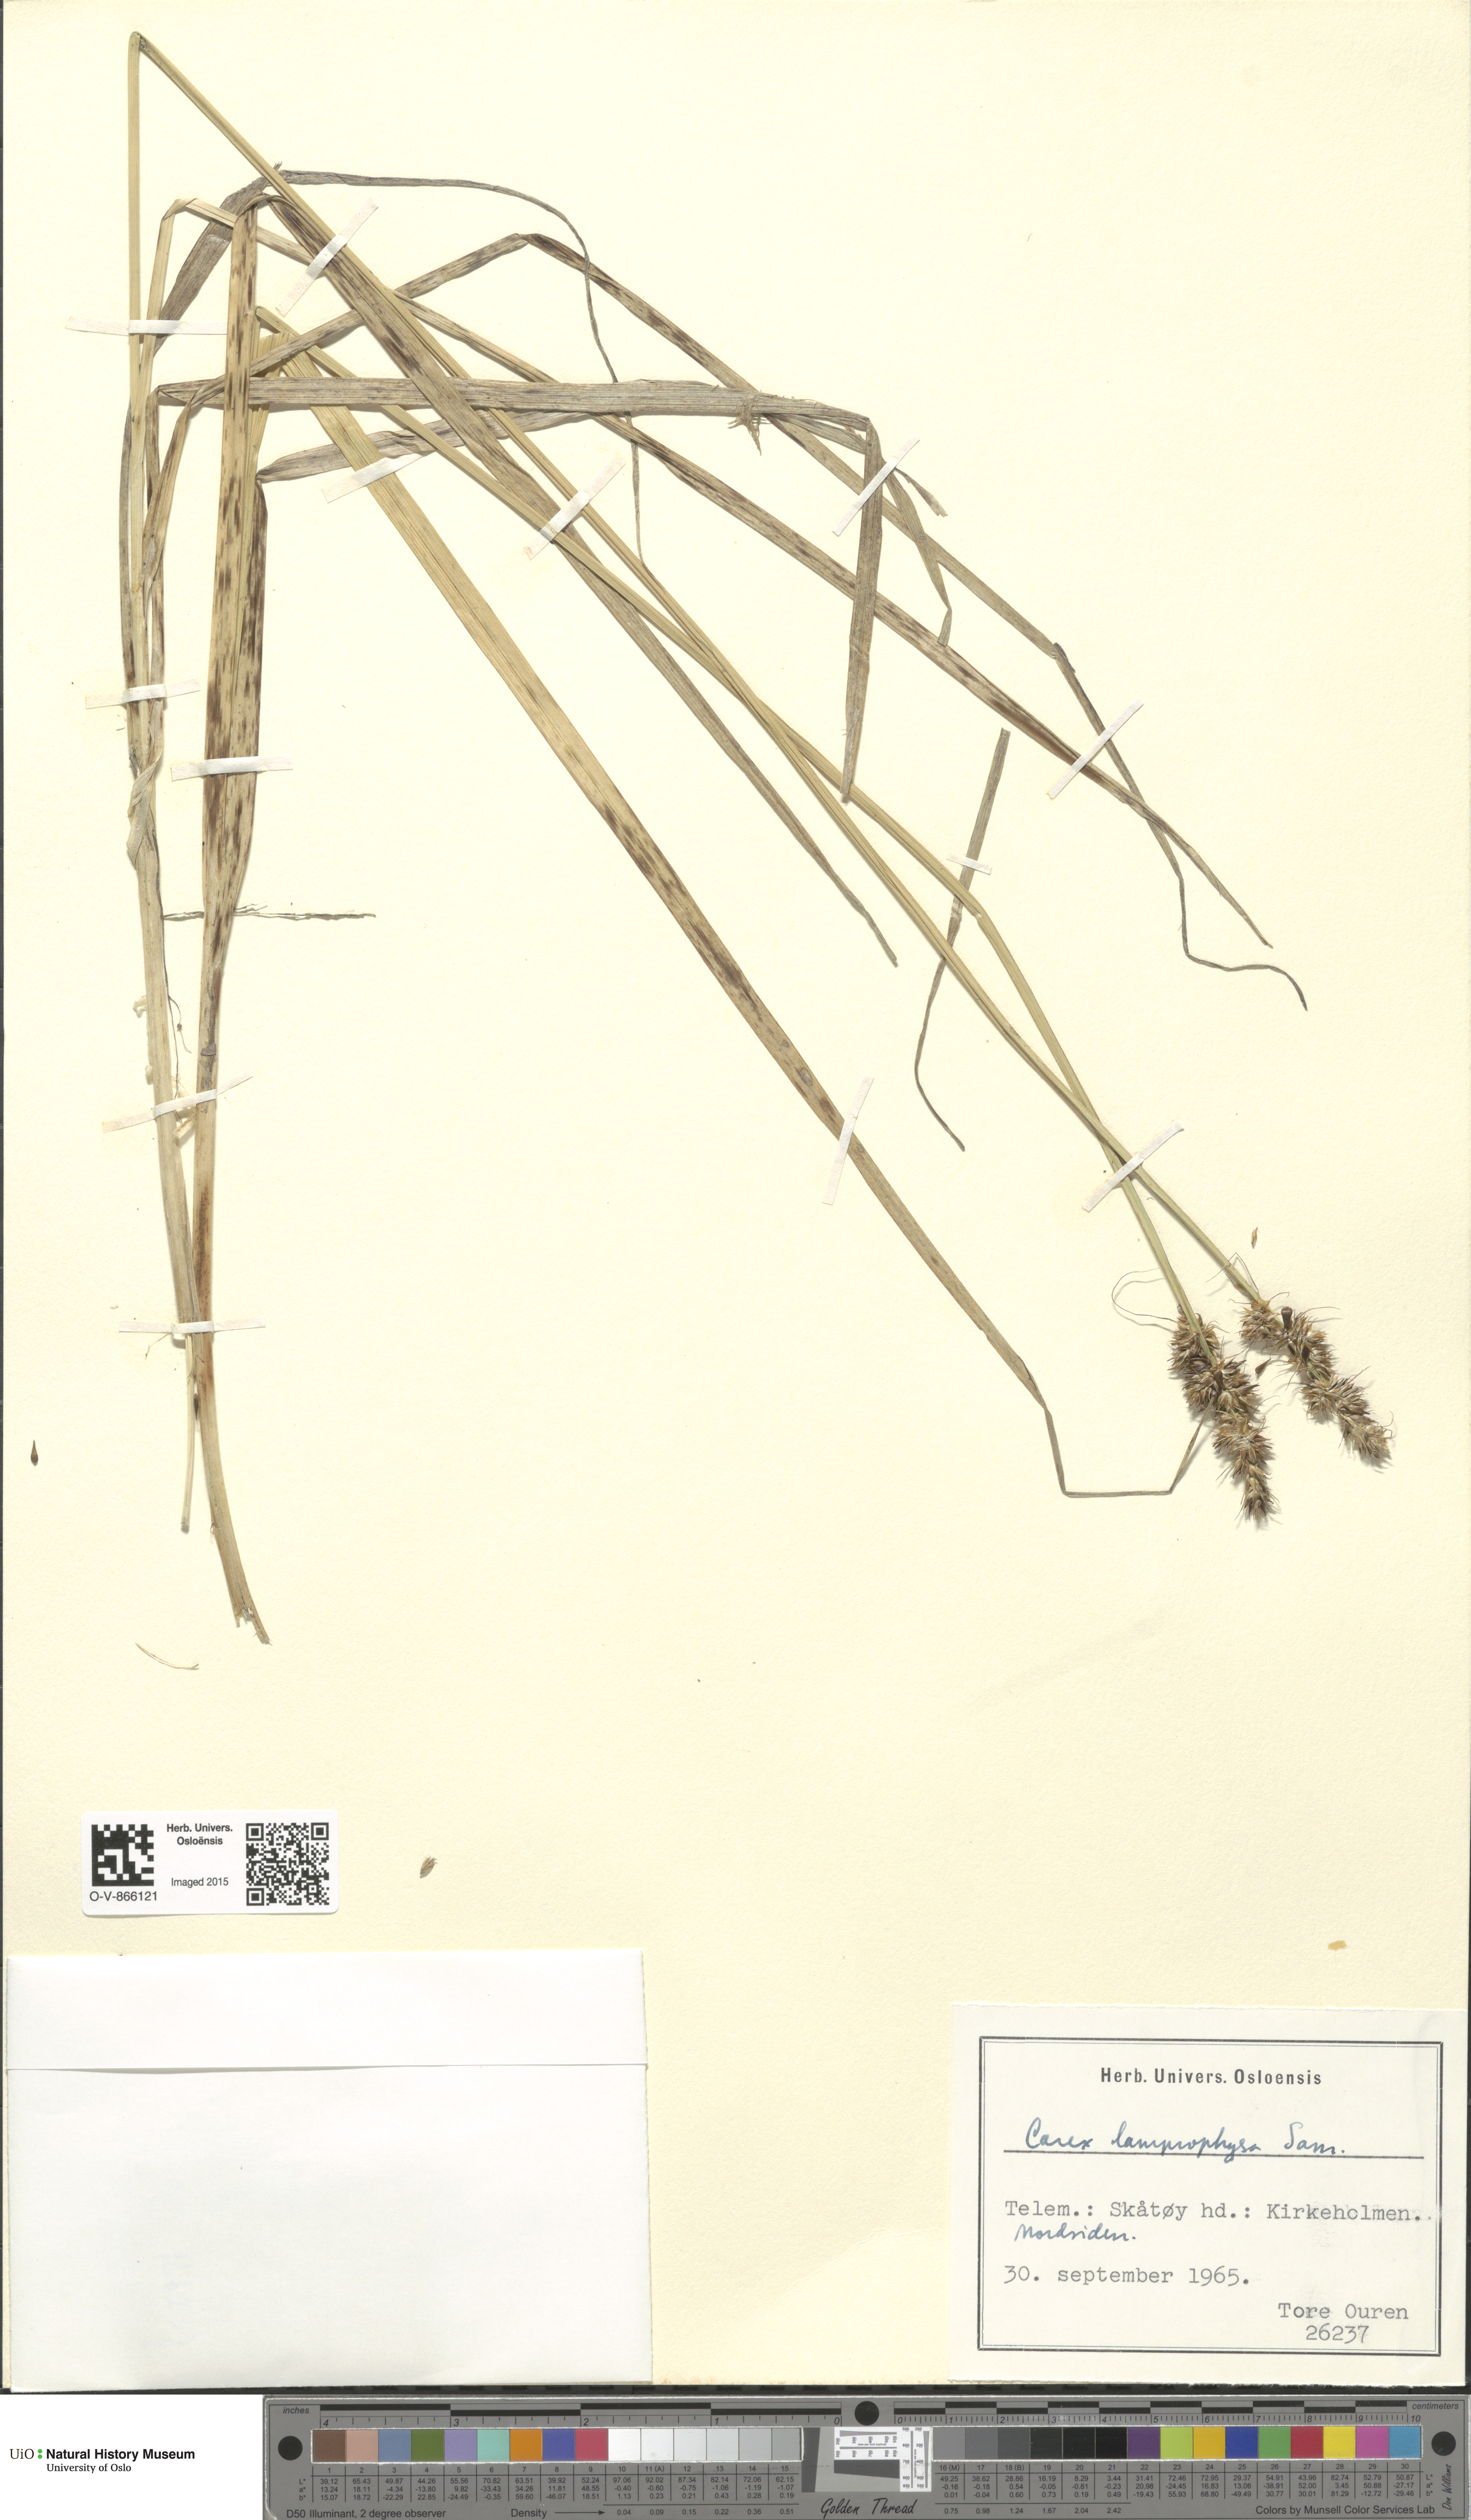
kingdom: Plantae
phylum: Tracheophyta
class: Liliopsida
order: Poales
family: Cyperaceae
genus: Carex
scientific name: Carex otrubae
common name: False fox-sedge
